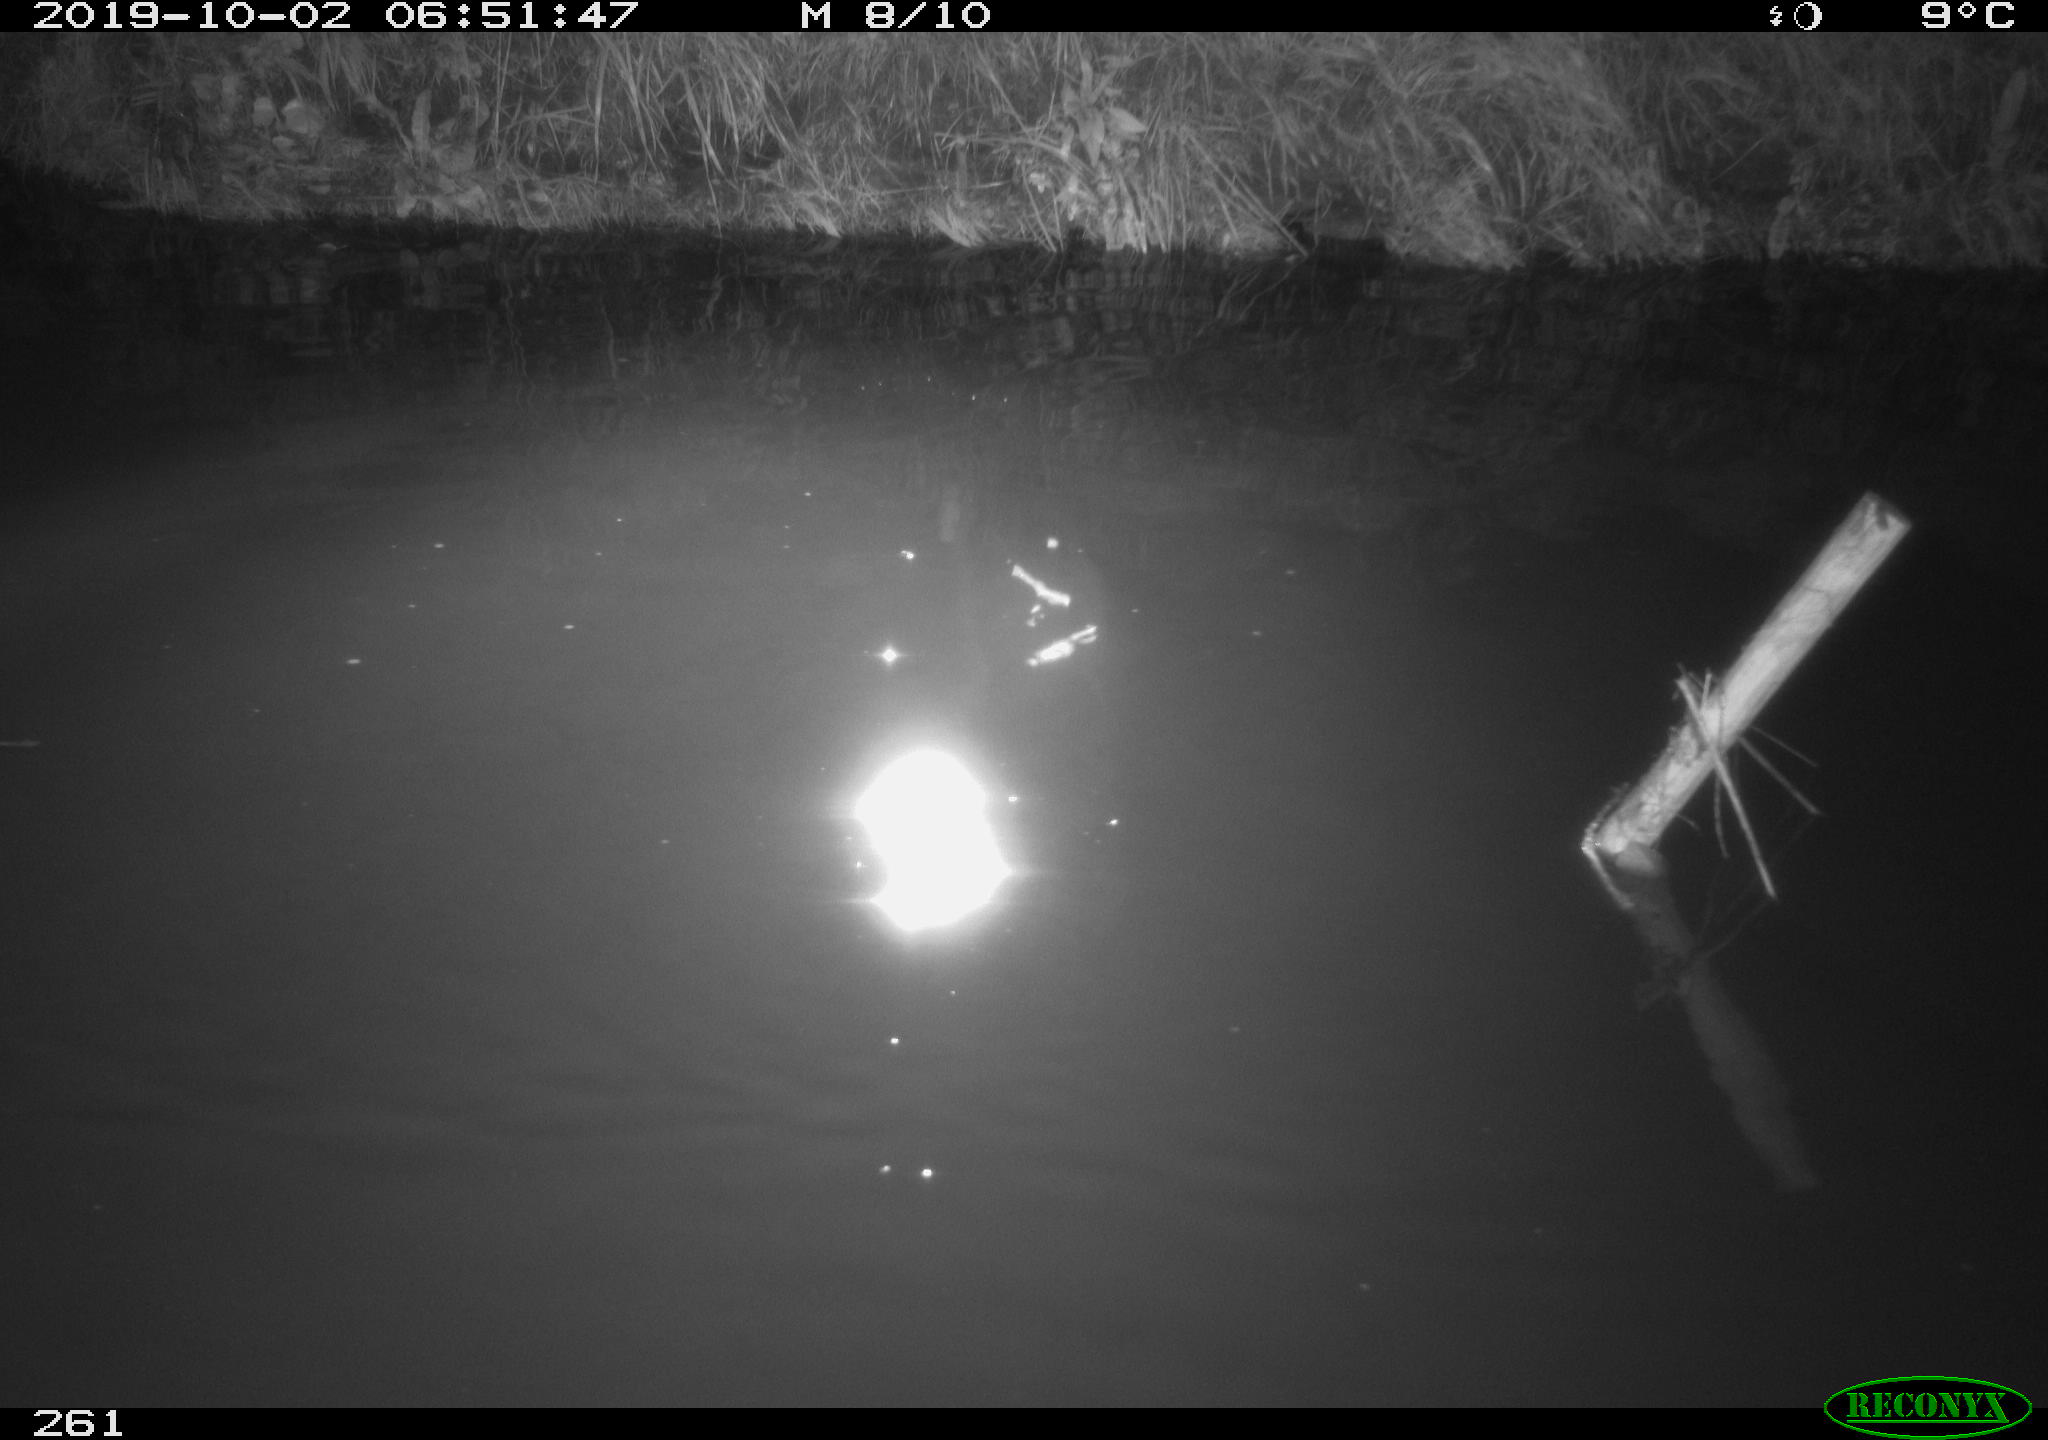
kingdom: Animalia
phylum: Chordata
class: Aves
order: Anseriformes
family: Anatidae
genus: Anas
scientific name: Anas platyrhynchos
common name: Mallard
